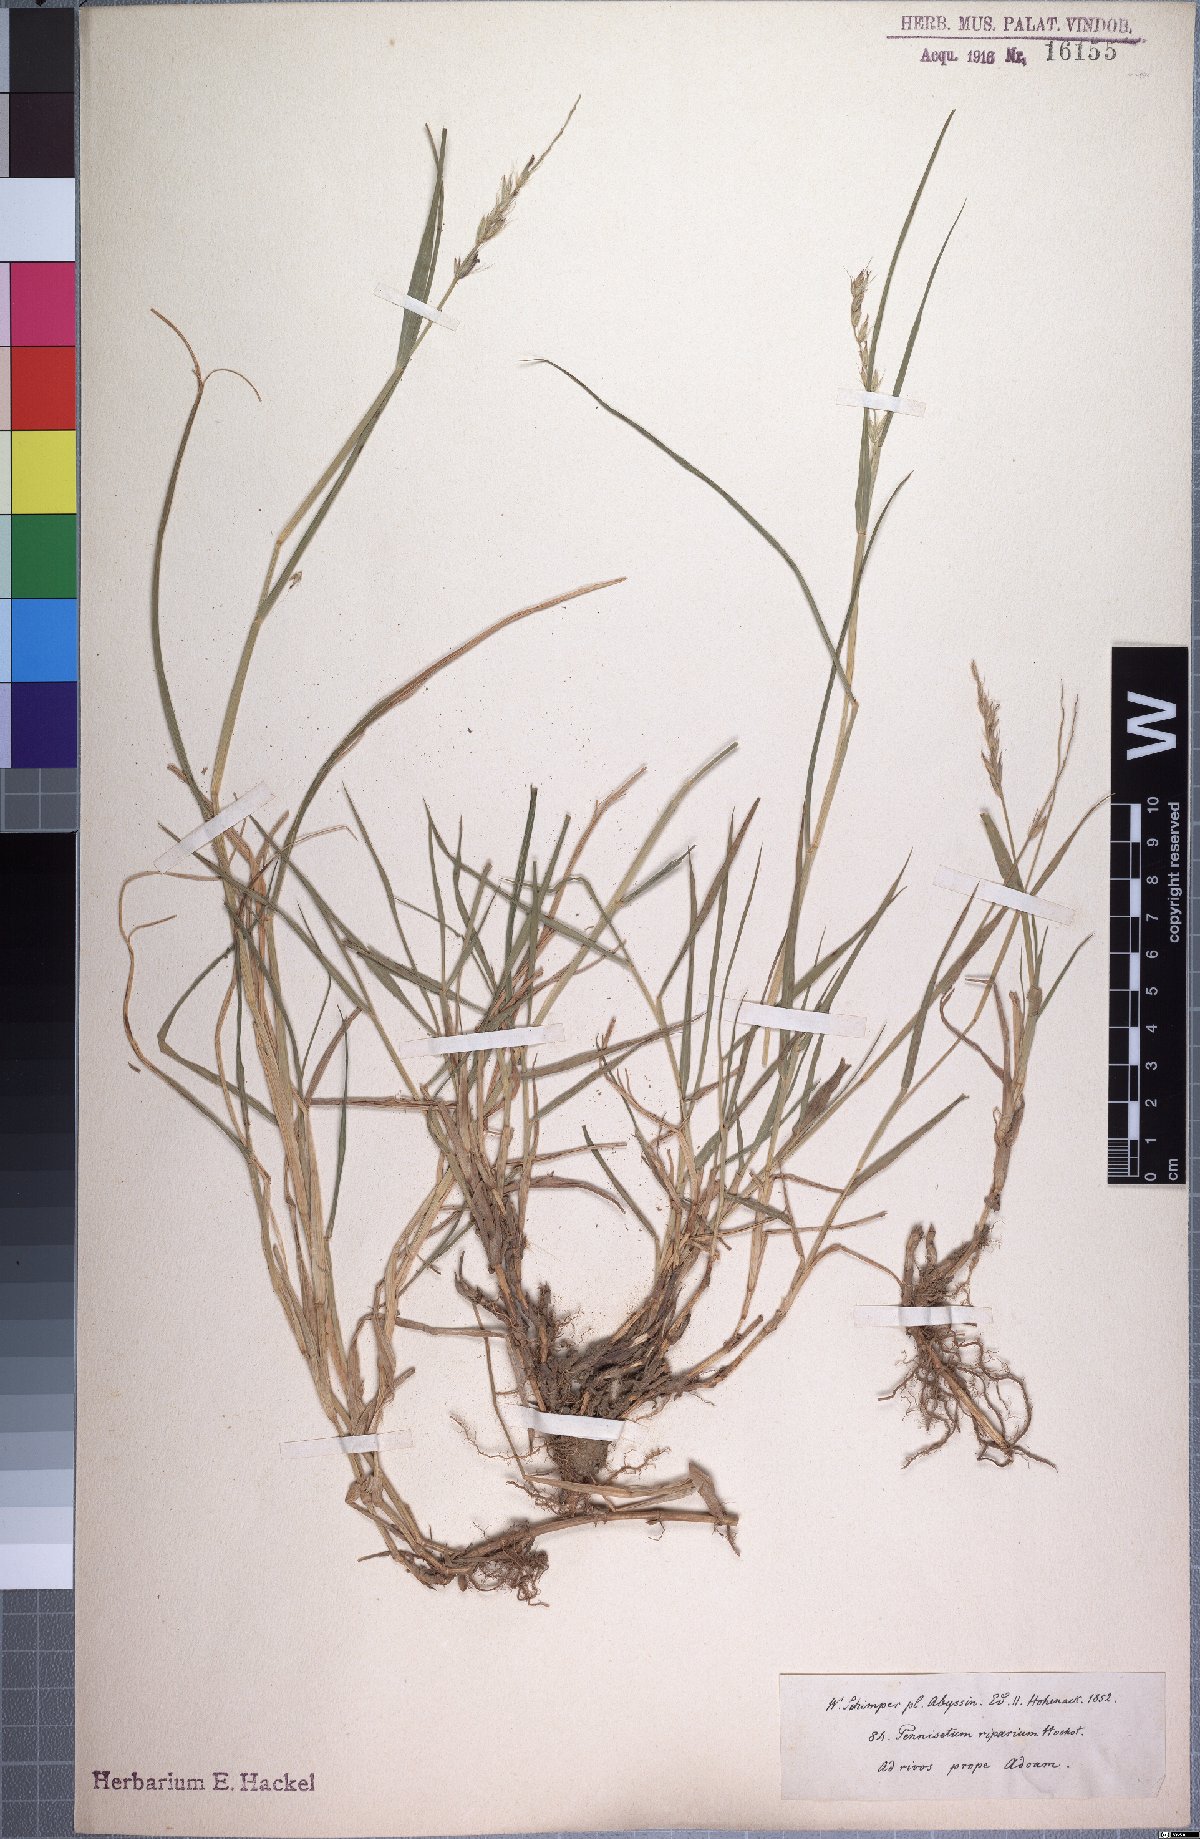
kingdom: Plantae
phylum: Tracheophyta
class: Liliopsida
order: Poales
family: Poaceae
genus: Cenchrus
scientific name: Cenchrus riparius
